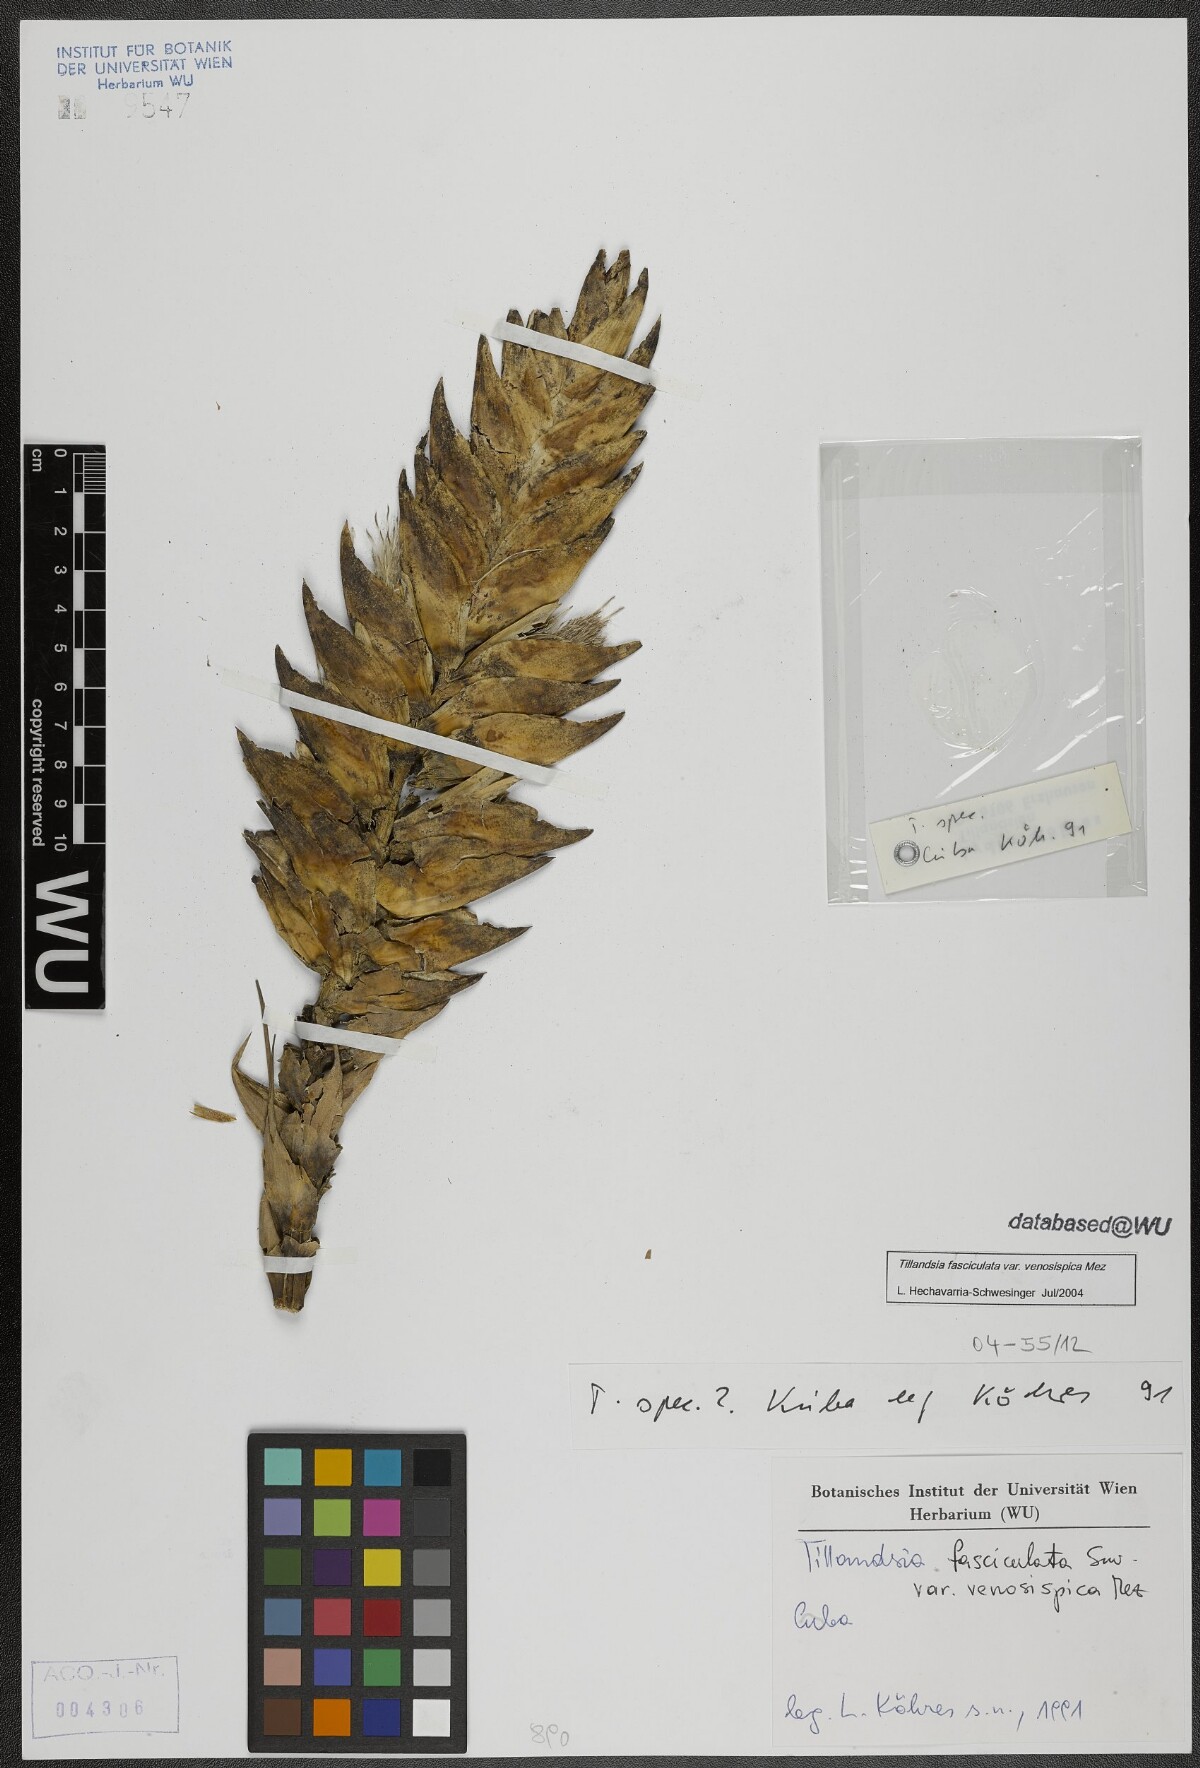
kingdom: Plantae
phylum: Tracheophyta
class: Liliopsida
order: Poales
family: Bromeliaceae
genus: Tillandsia
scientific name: Tillandsia compressa
